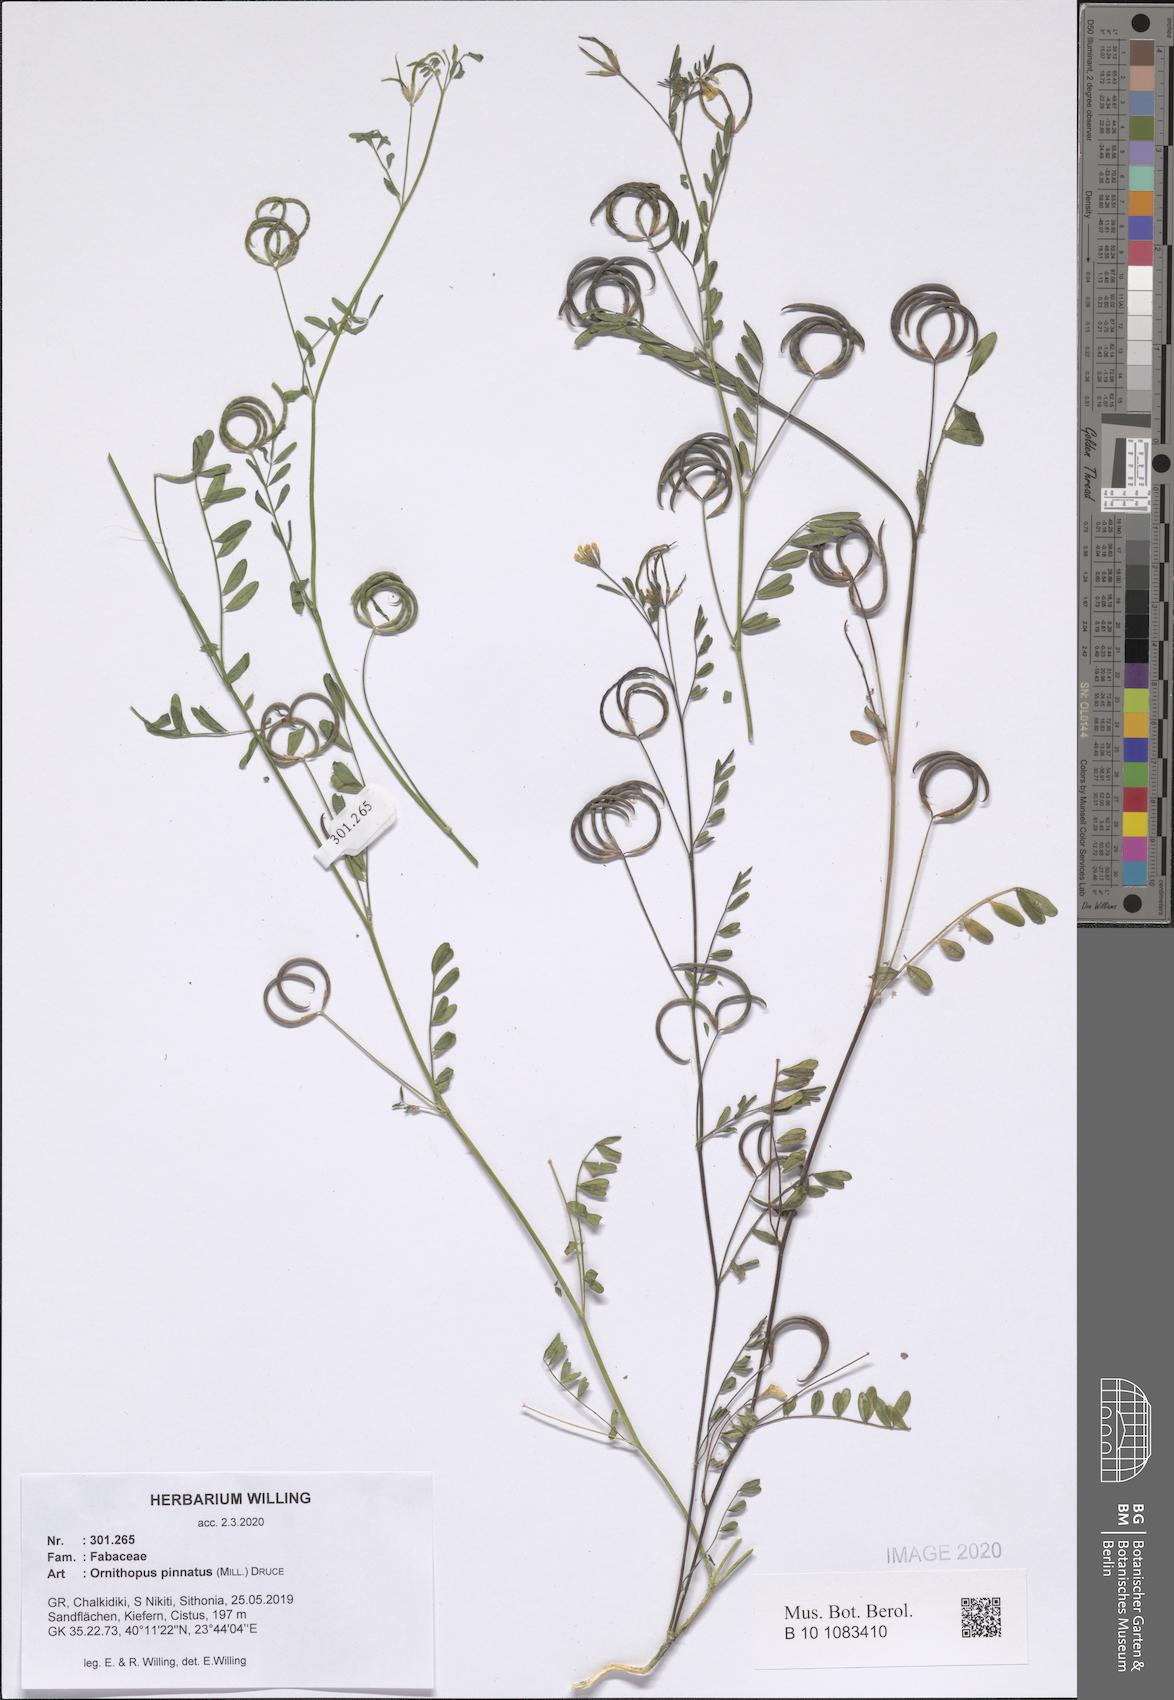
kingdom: Plantae
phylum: Tracheophyta
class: Magnoliopsida
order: Fabales
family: Fabaceae
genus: Ornithopus
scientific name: Ornithopus pinnatus
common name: Orange bird's-foot
